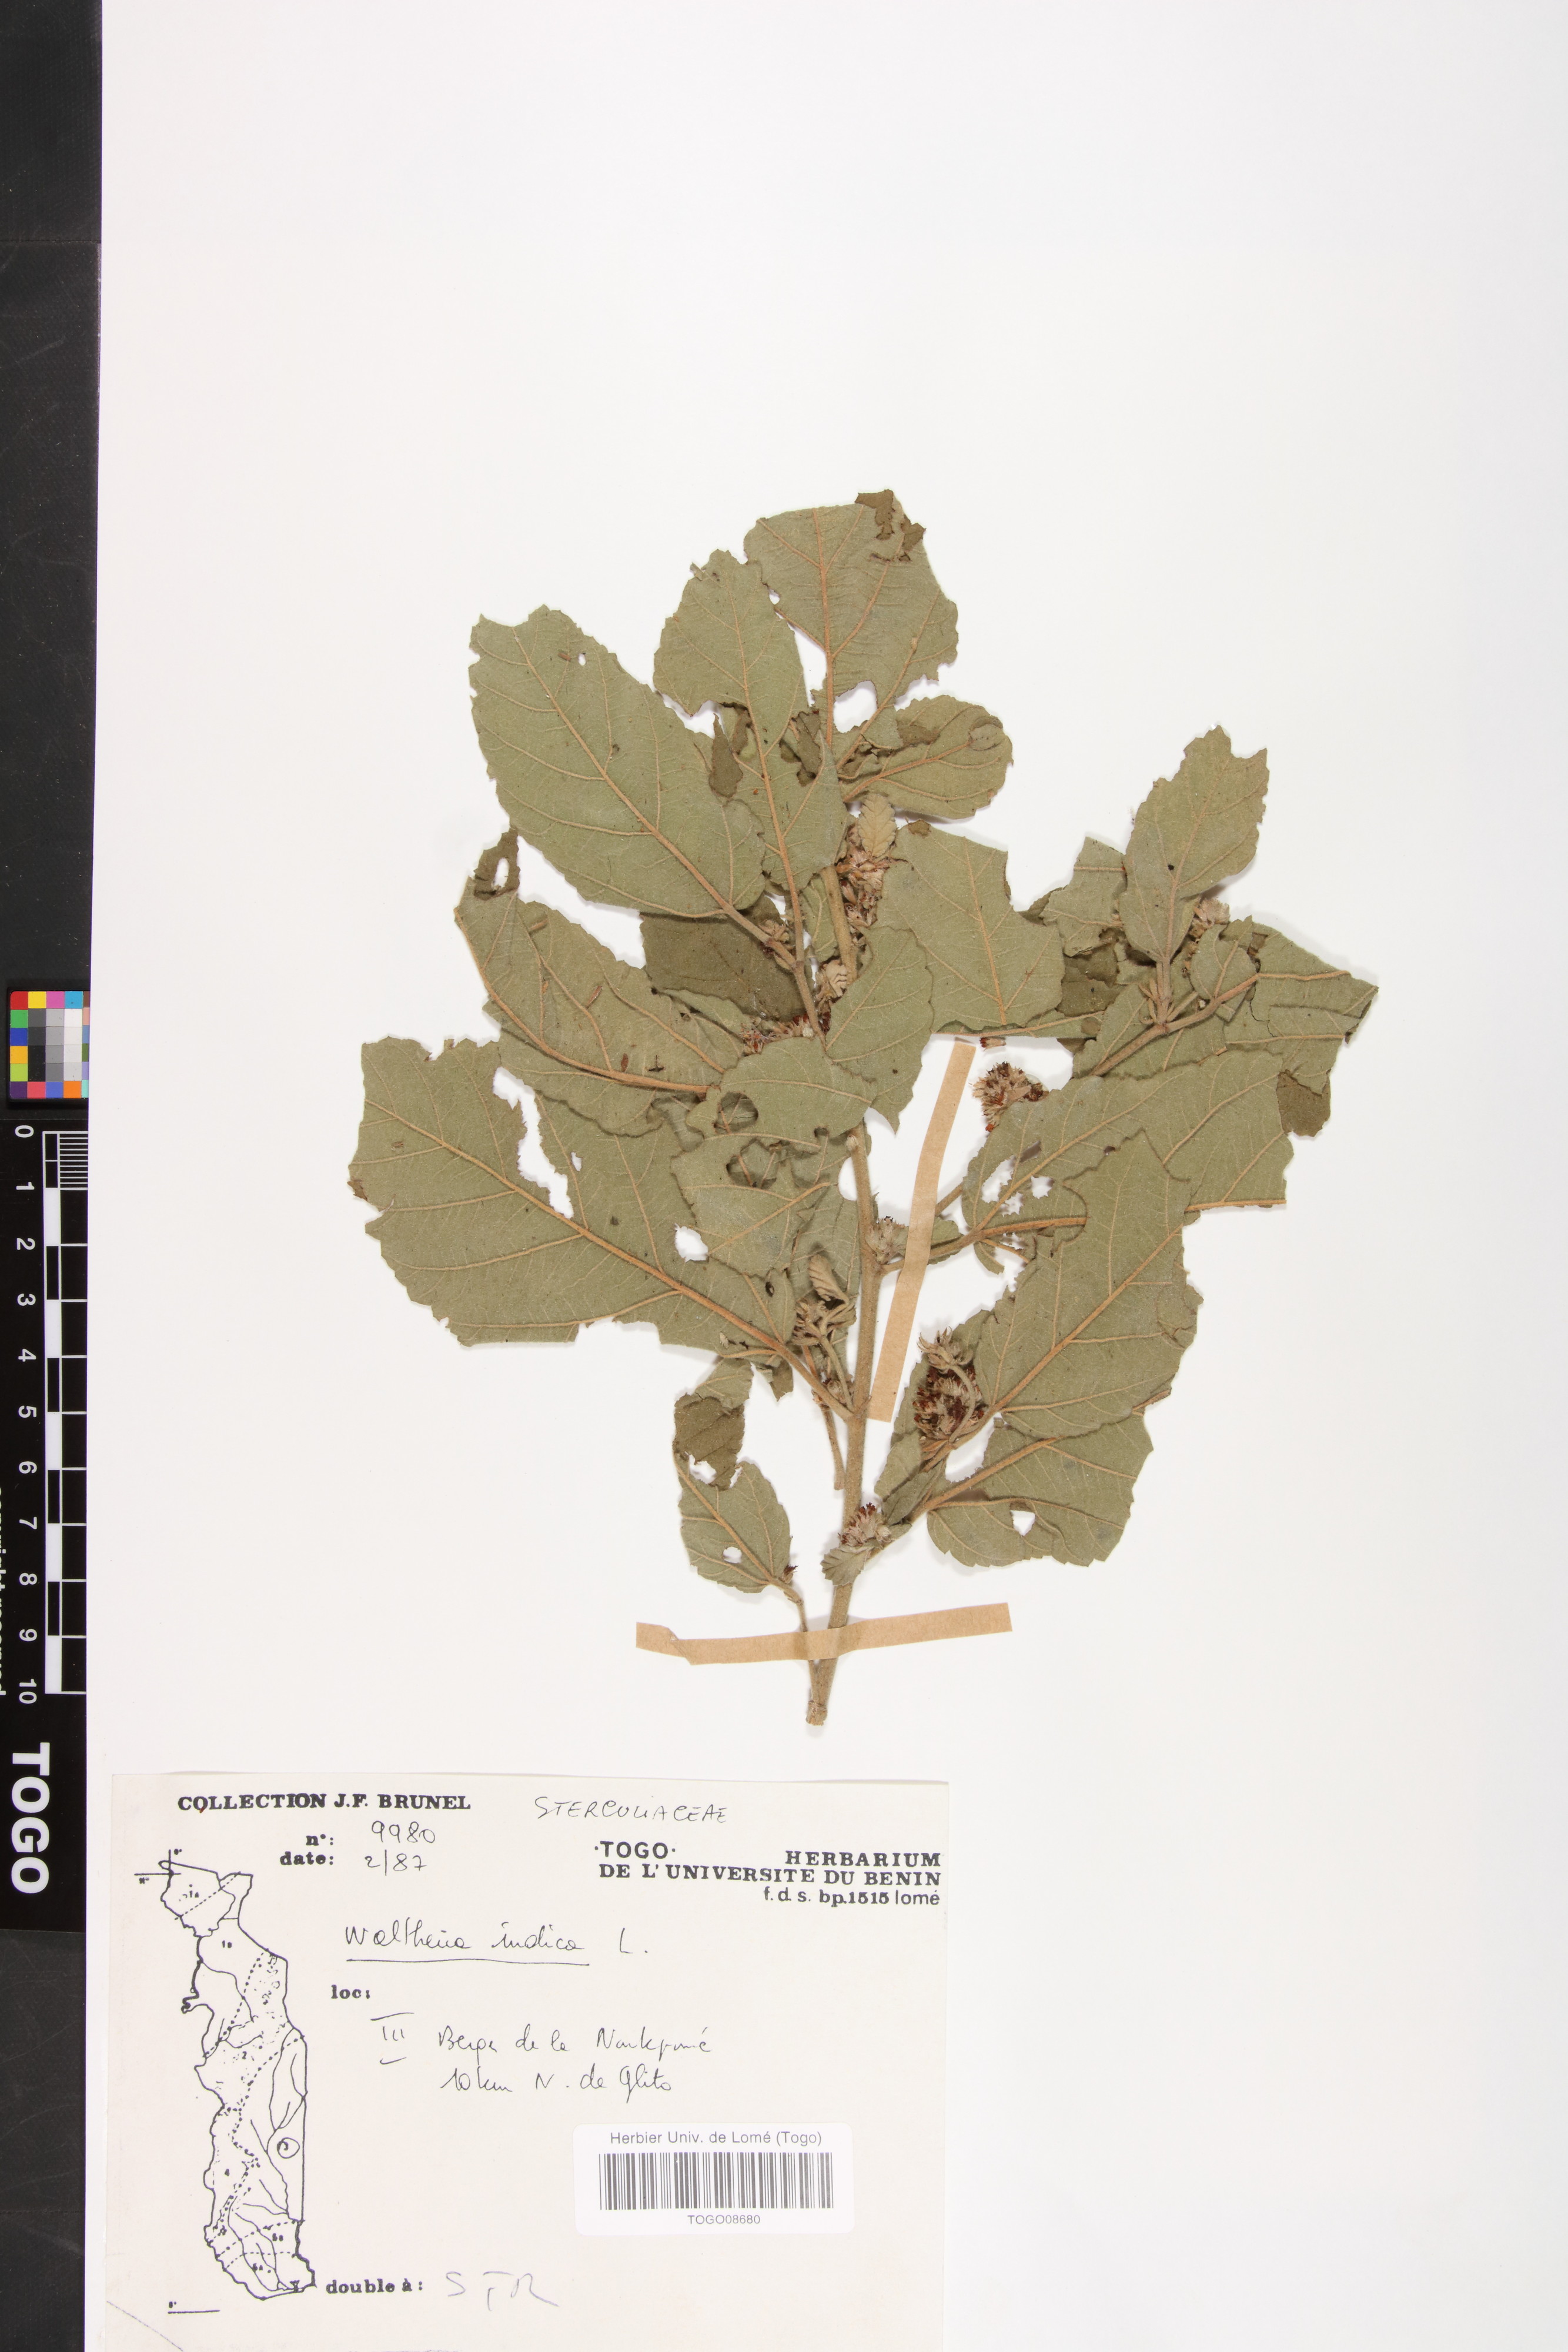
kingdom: Plantae
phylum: Tracheophyta
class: Magnoliopsida
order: Malvales
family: Malvaceae
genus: Waltheria
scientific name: Waltheria indica
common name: Leather-coat
